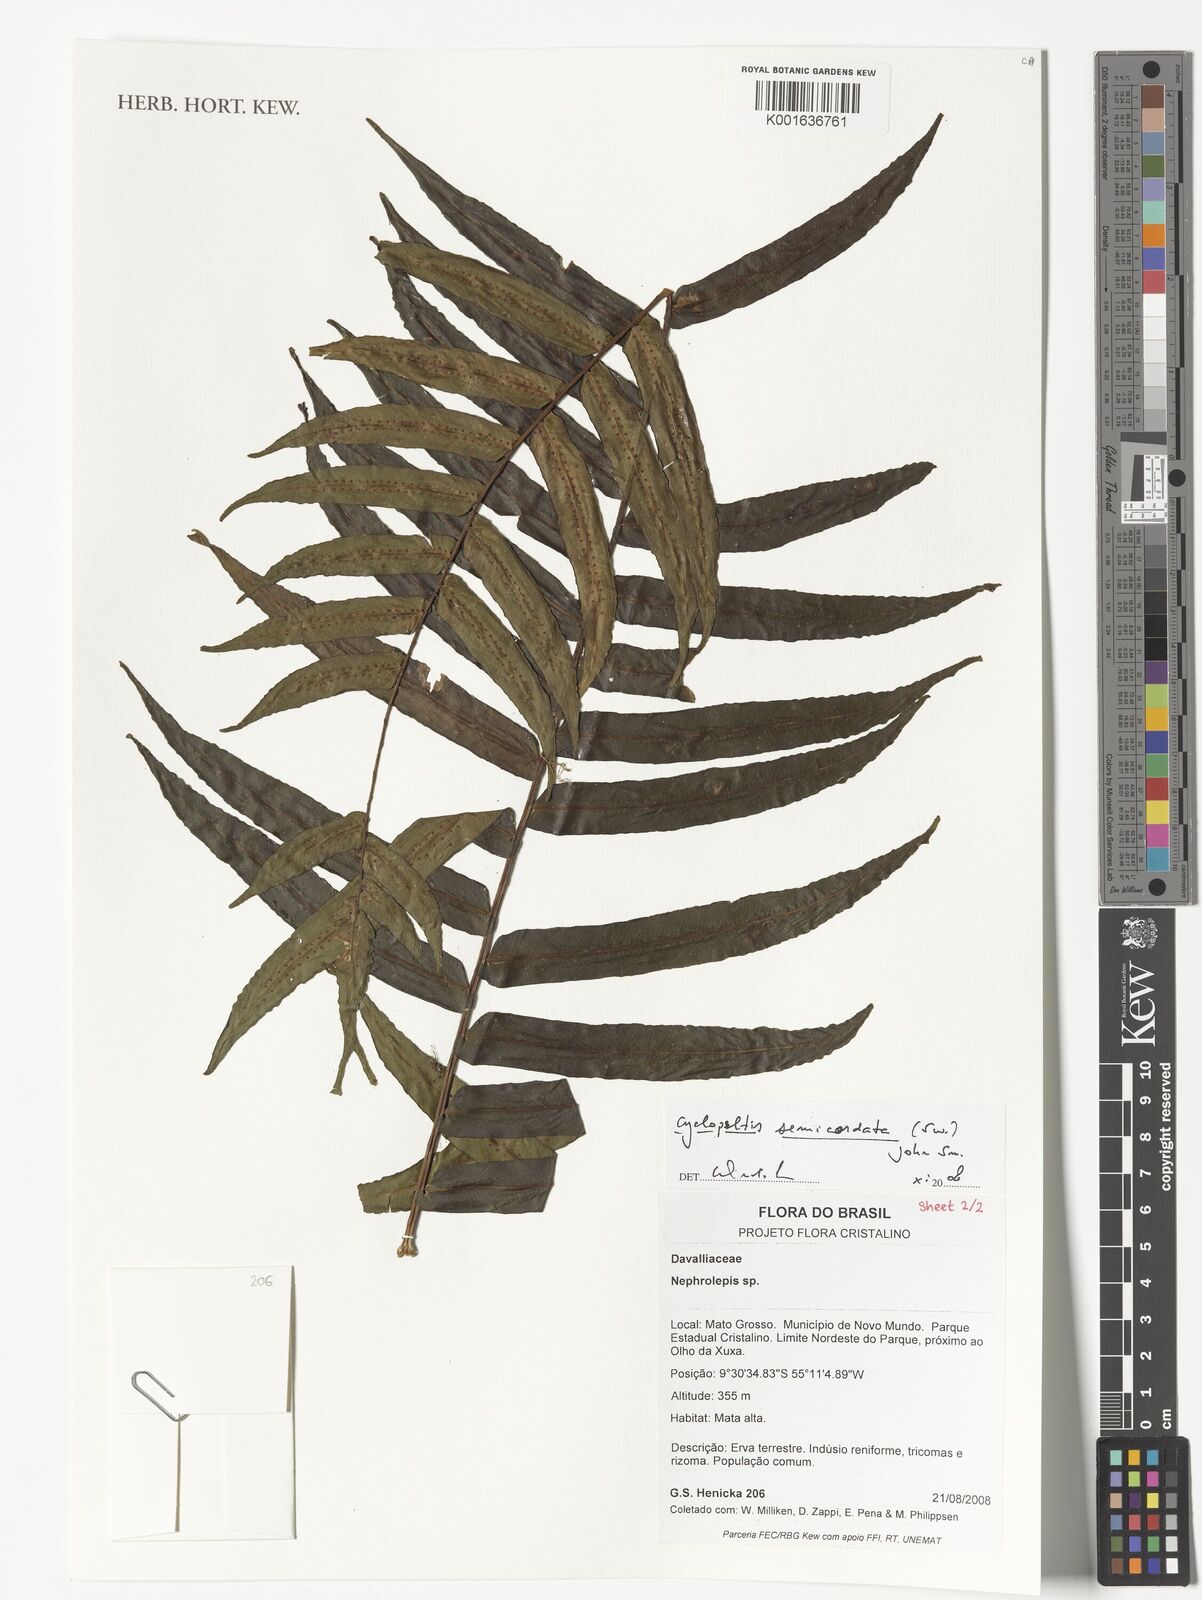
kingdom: Plantae
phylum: Tracheophyta
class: Polypodiopsida
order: Polypodiales
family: Lomariopsidaceae
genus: Cyclopeltis
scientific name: Cyclopeltis semicordata
